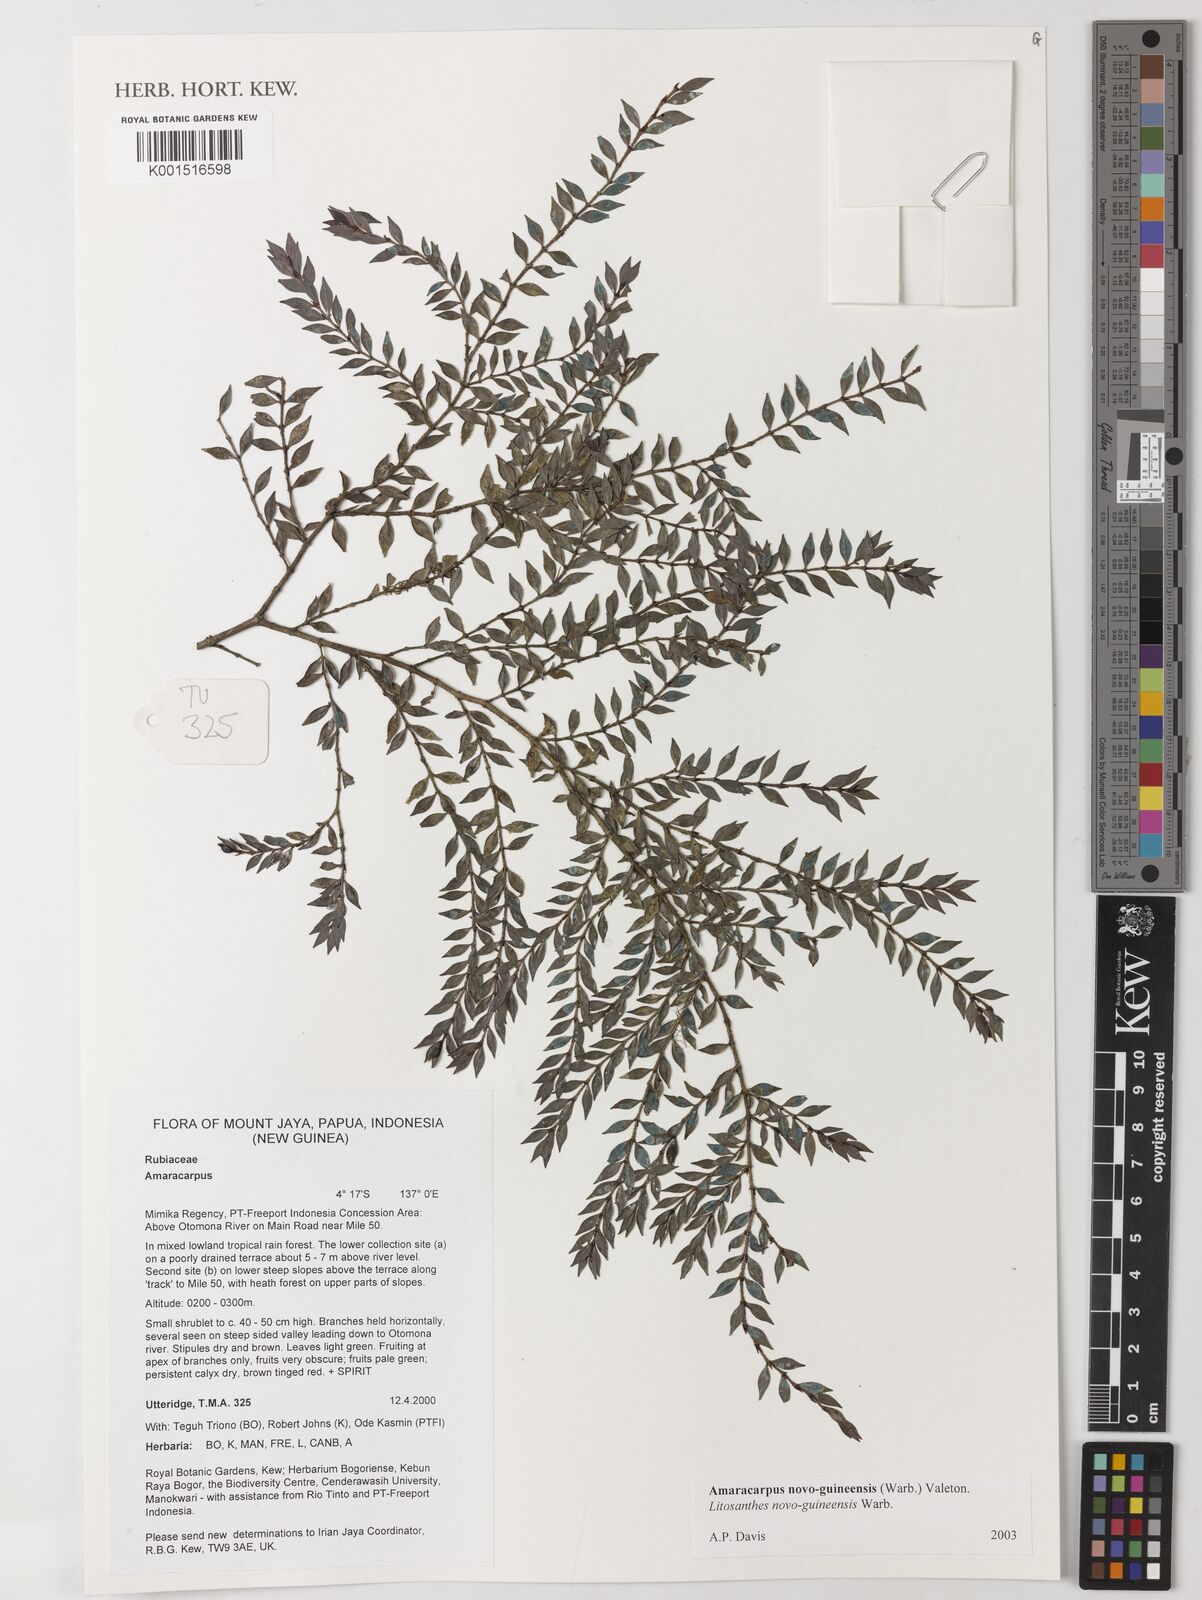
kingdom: Plantae
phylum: Tracheophyta
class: Magnoliopsida
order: Gentianales
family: Rubiaceae
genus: Amaracarpus
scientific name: Amaracarpus novoguineensis
